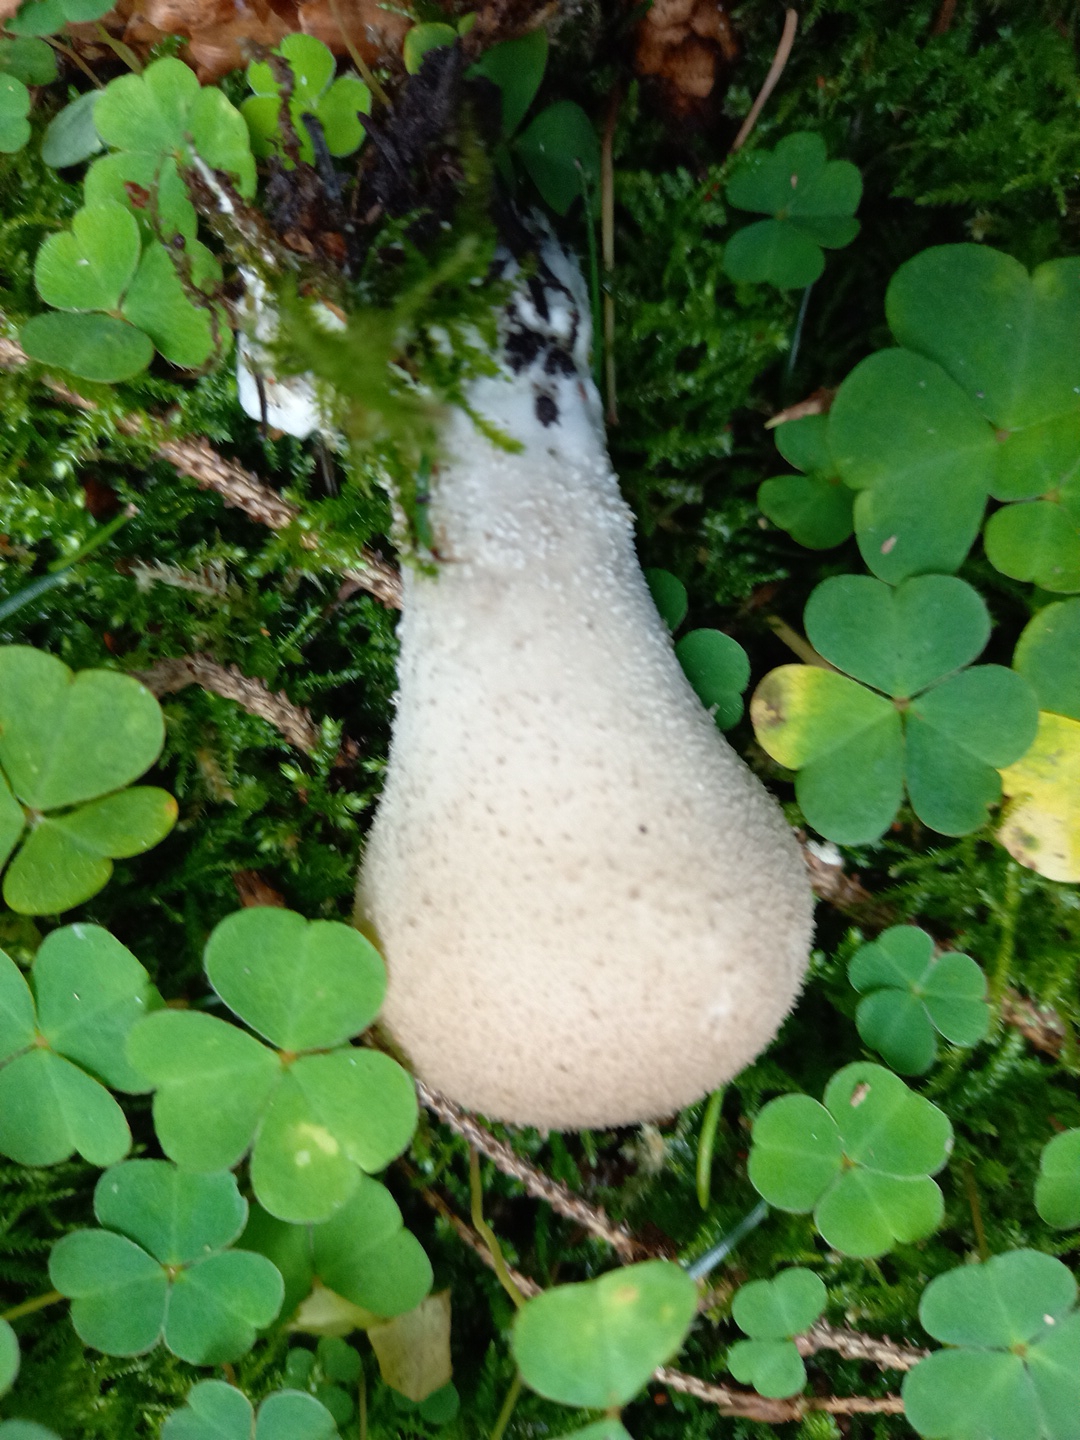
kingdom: Fungi
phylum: Basidiomycota
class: Agaricomycetes
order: Agaricales
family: Agaricaceae
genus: Lycoperdon
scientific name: Lycoperdon
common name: støvbold
